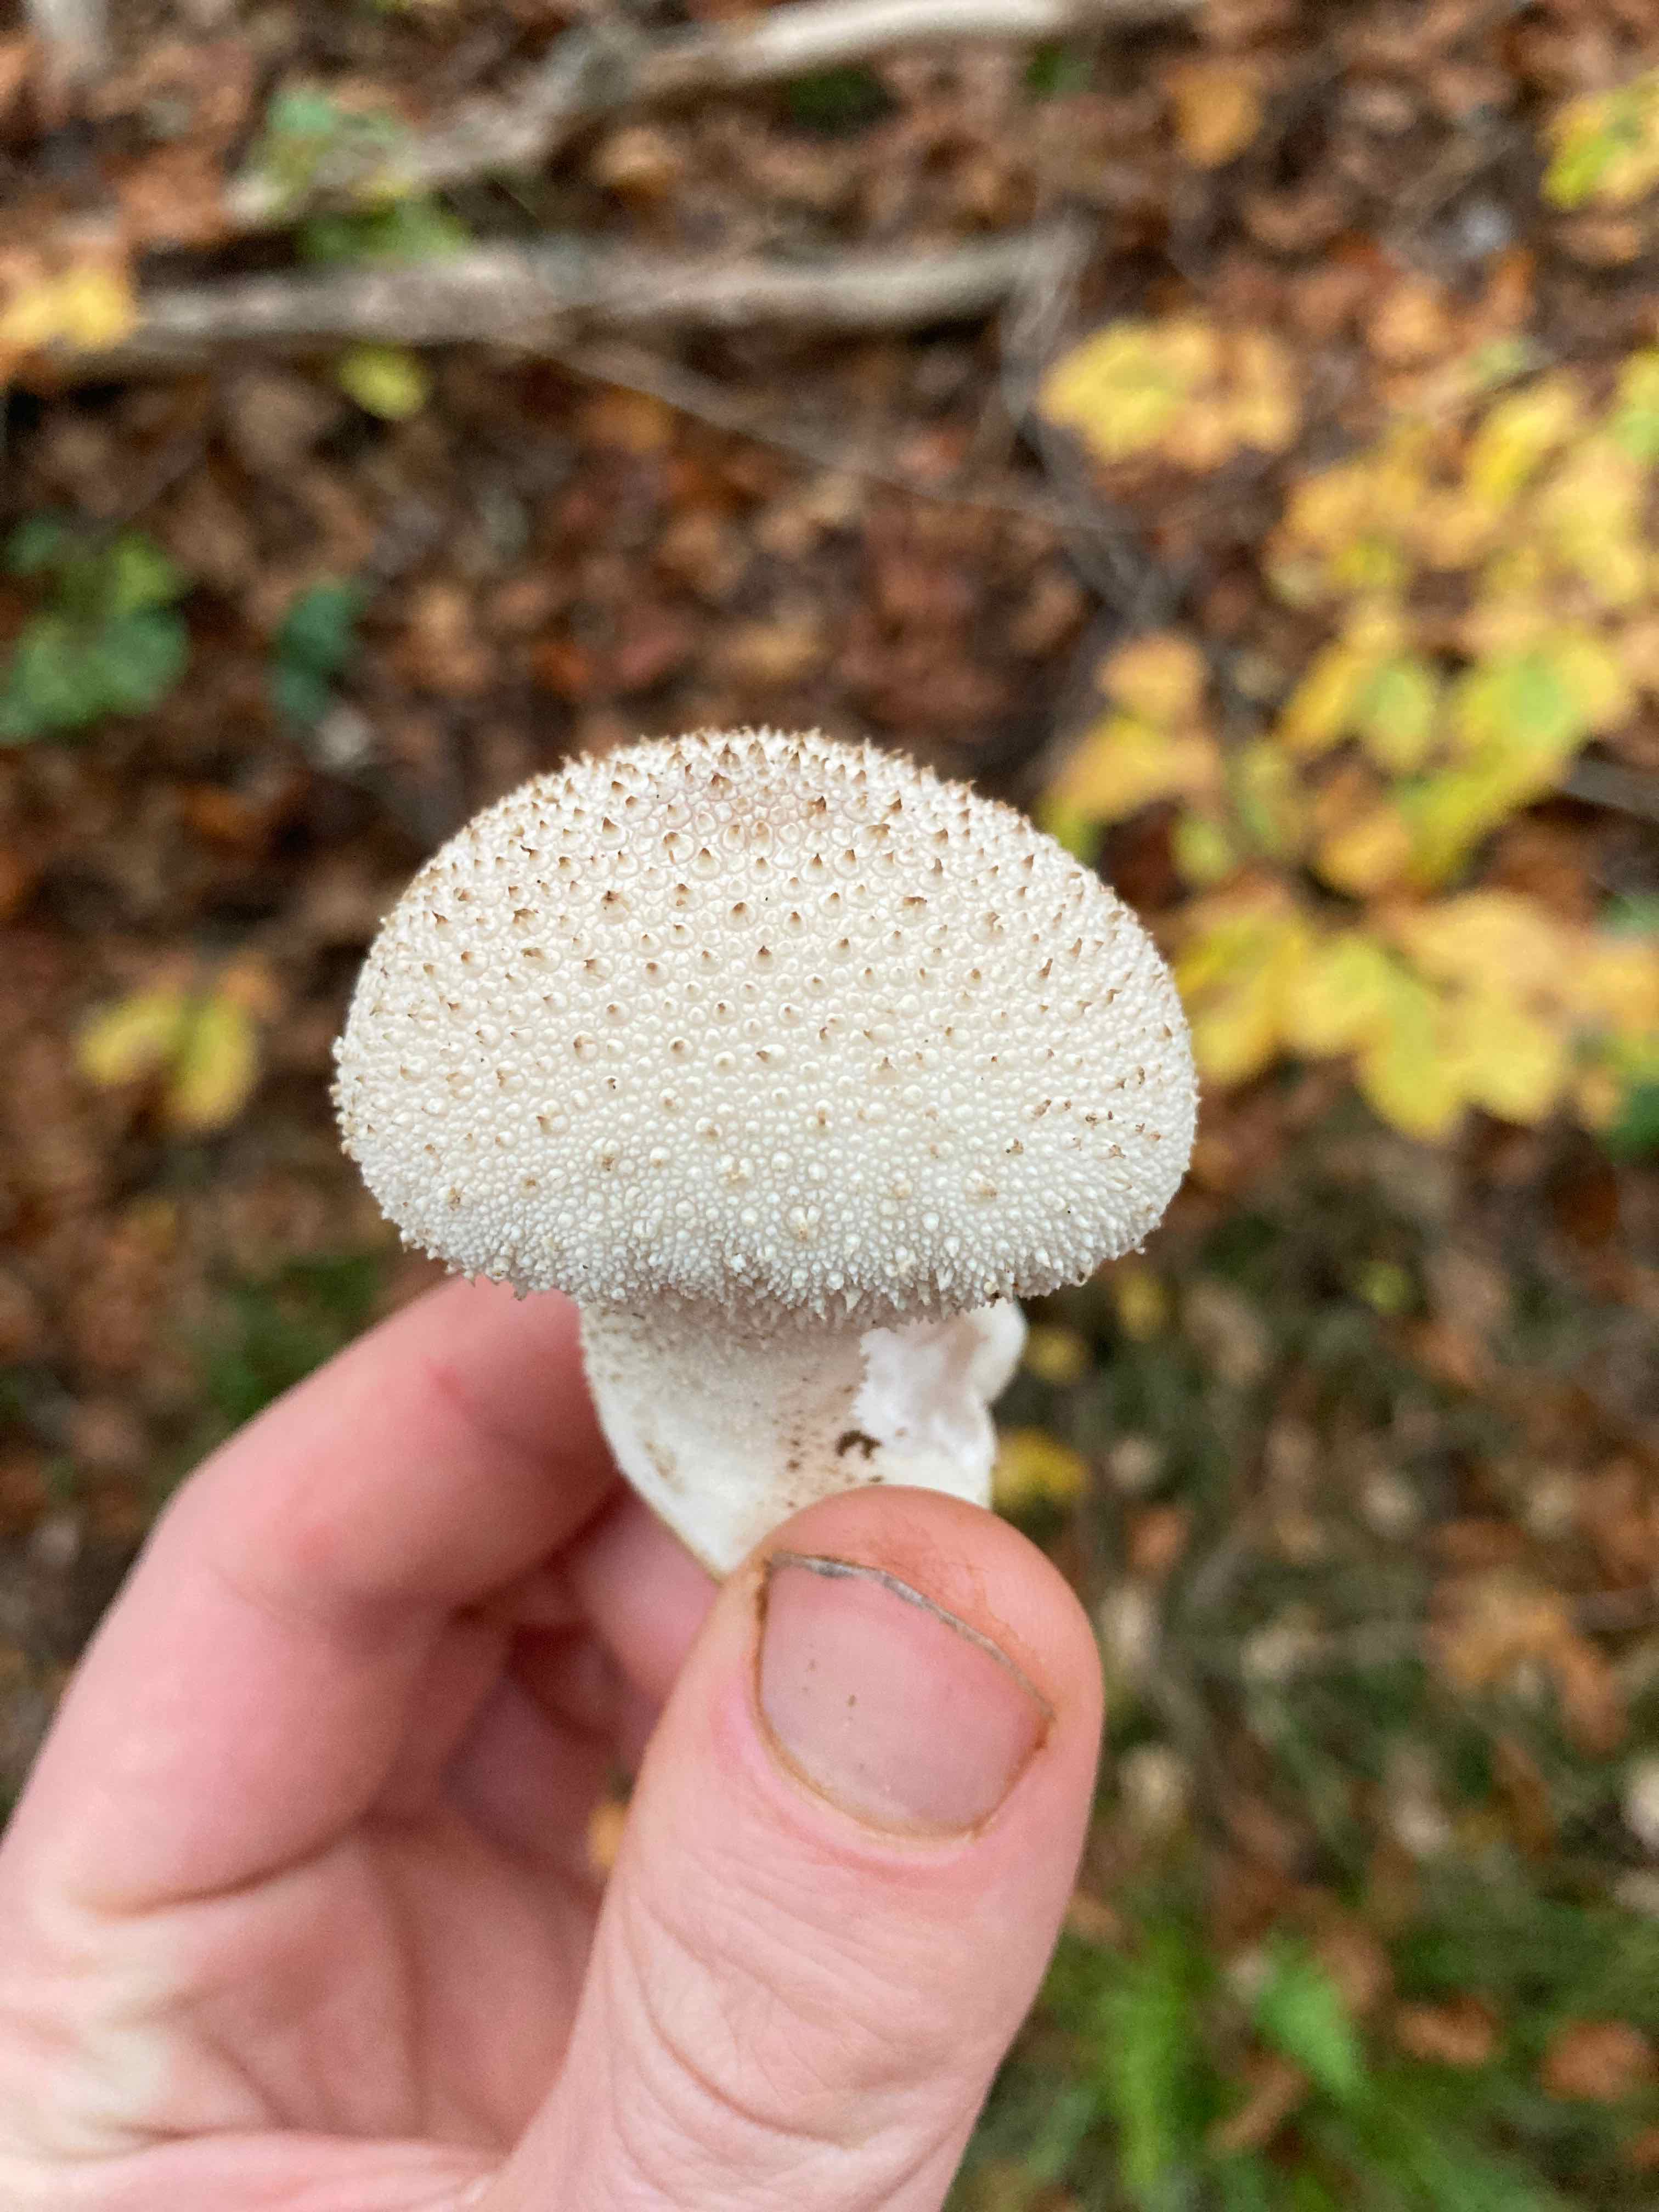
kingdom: Fungi
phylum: Basidiomycota
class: Agaricomycetes
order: Agaricales
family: Lycoperdaceae
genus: Lycoperdon
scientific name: Lycoperdon perlatum
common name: krystal-støvbold
